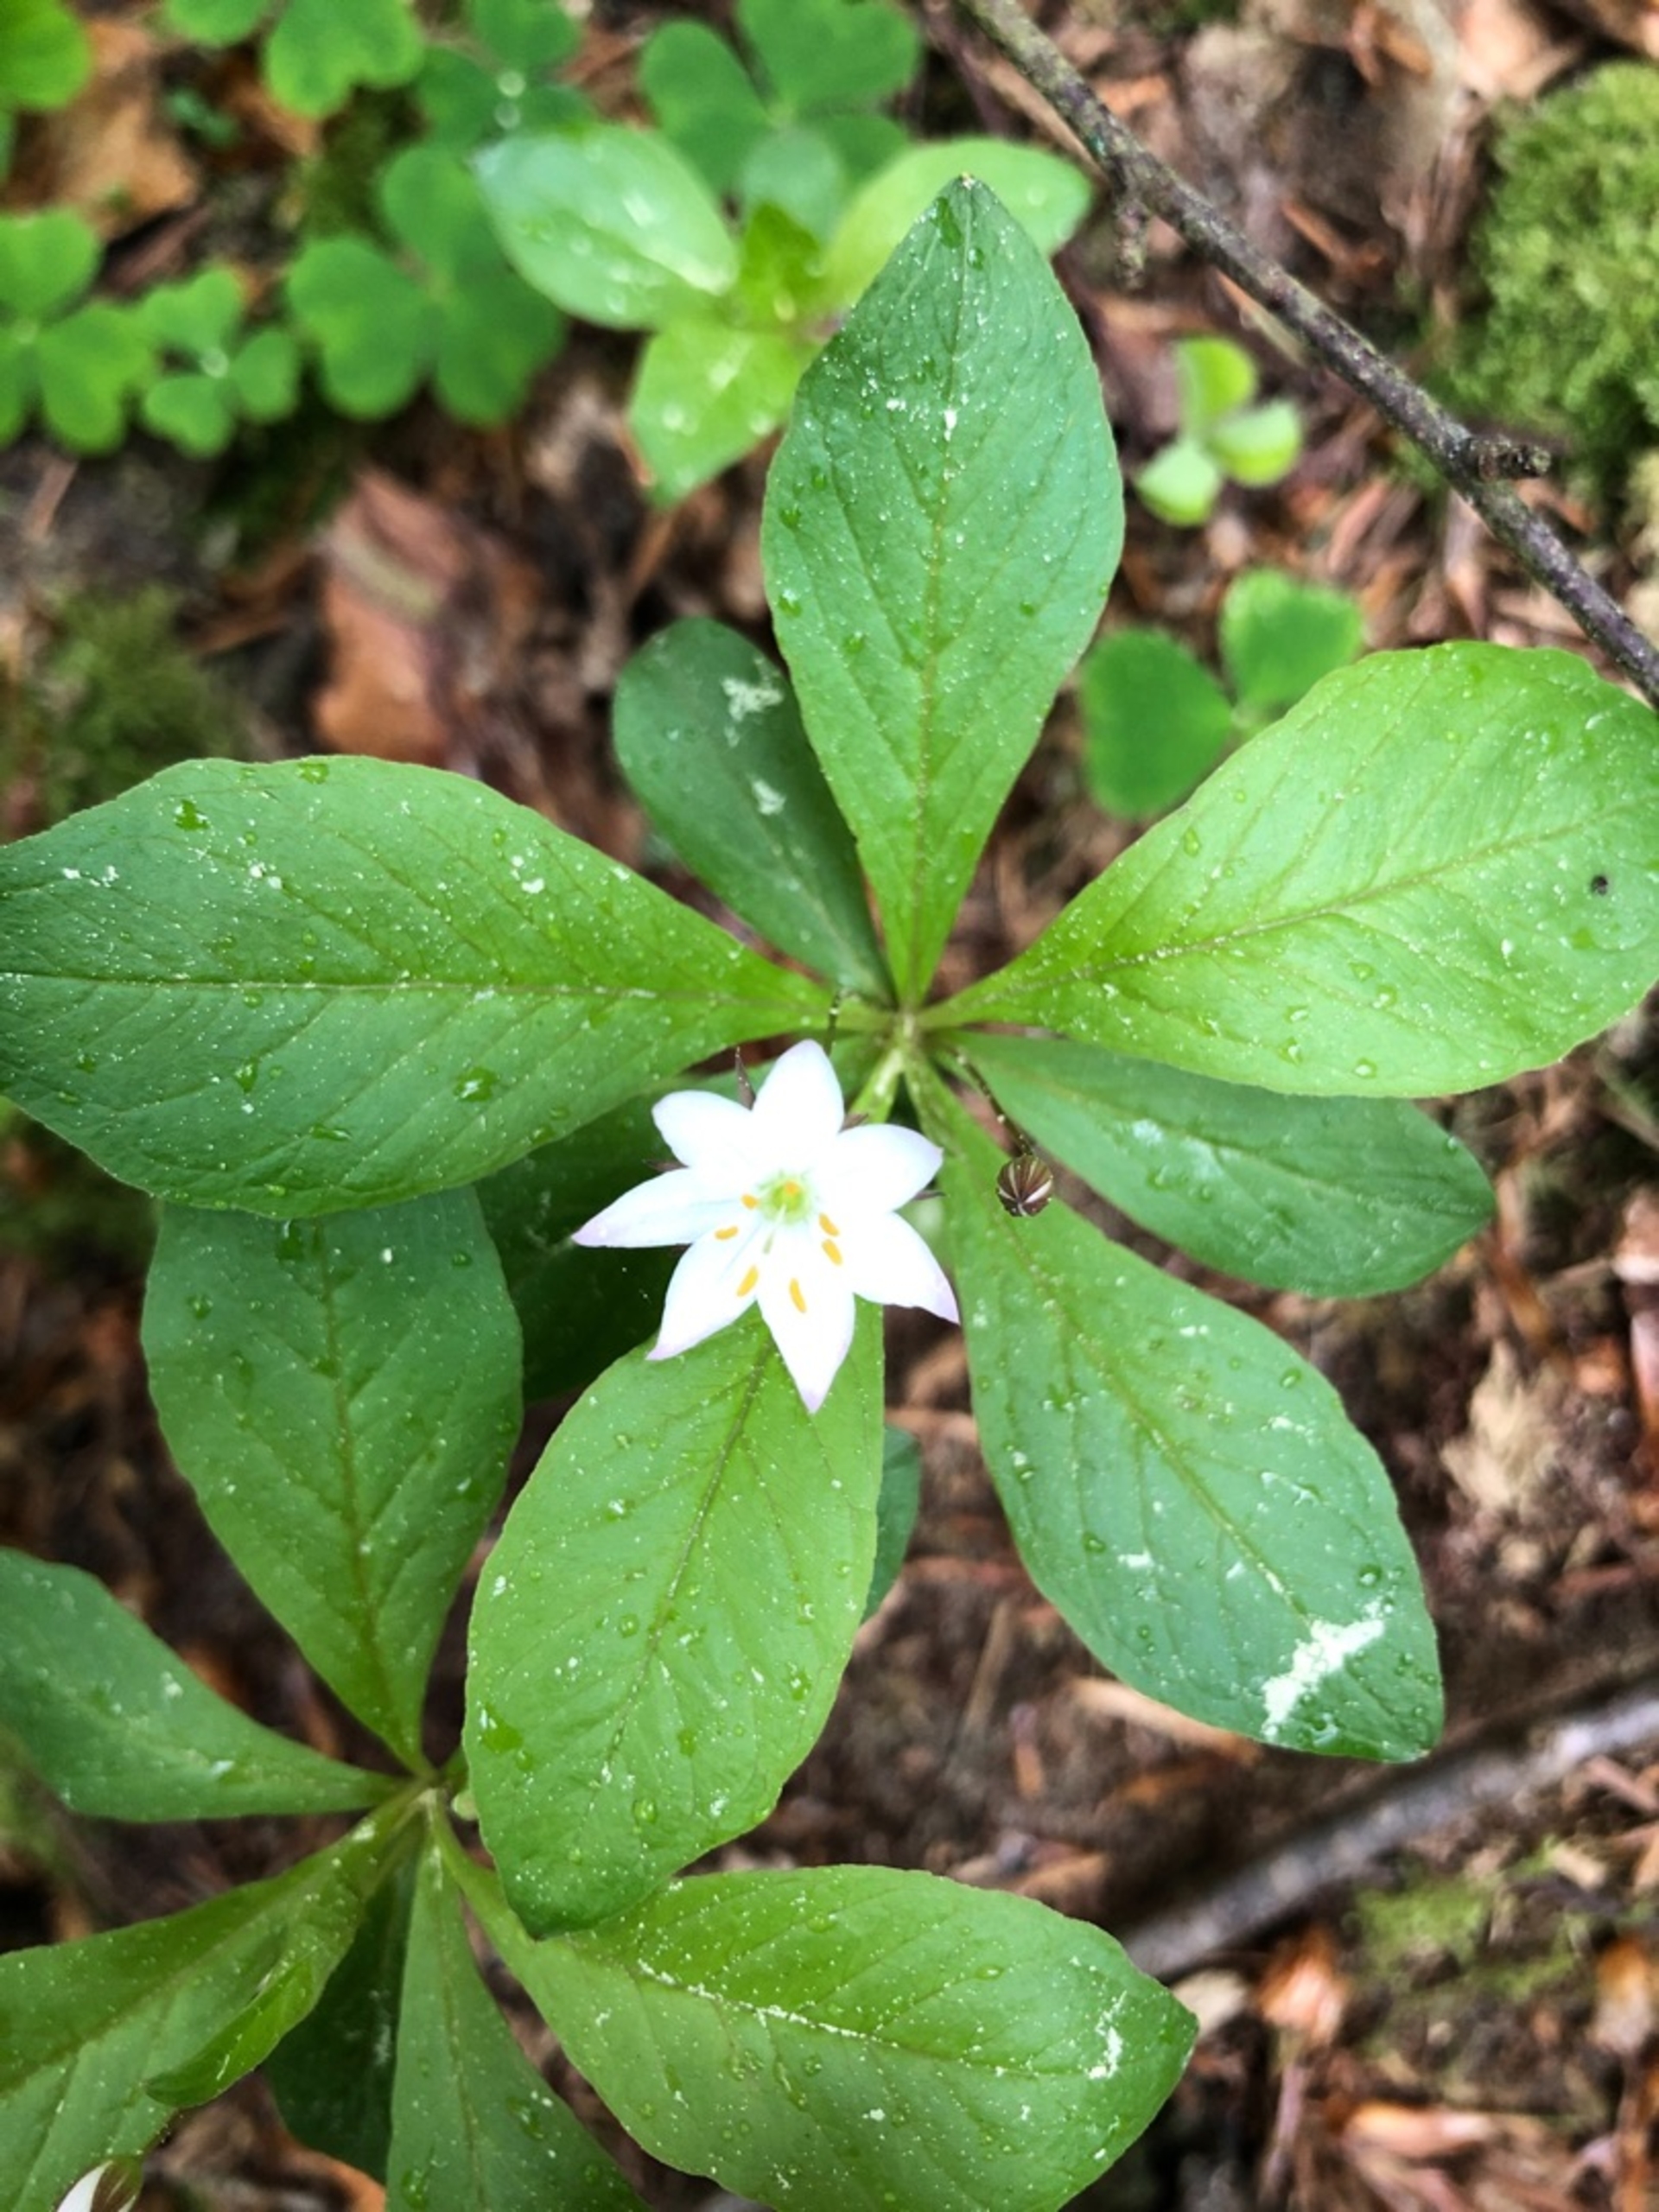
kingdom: Plantae
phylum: Tracheophyta
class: Magnoliopsida
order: Ericales
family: Primulaceae
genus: Lysimachia
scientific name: Lysimachia europaea
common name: Skovstjerne
